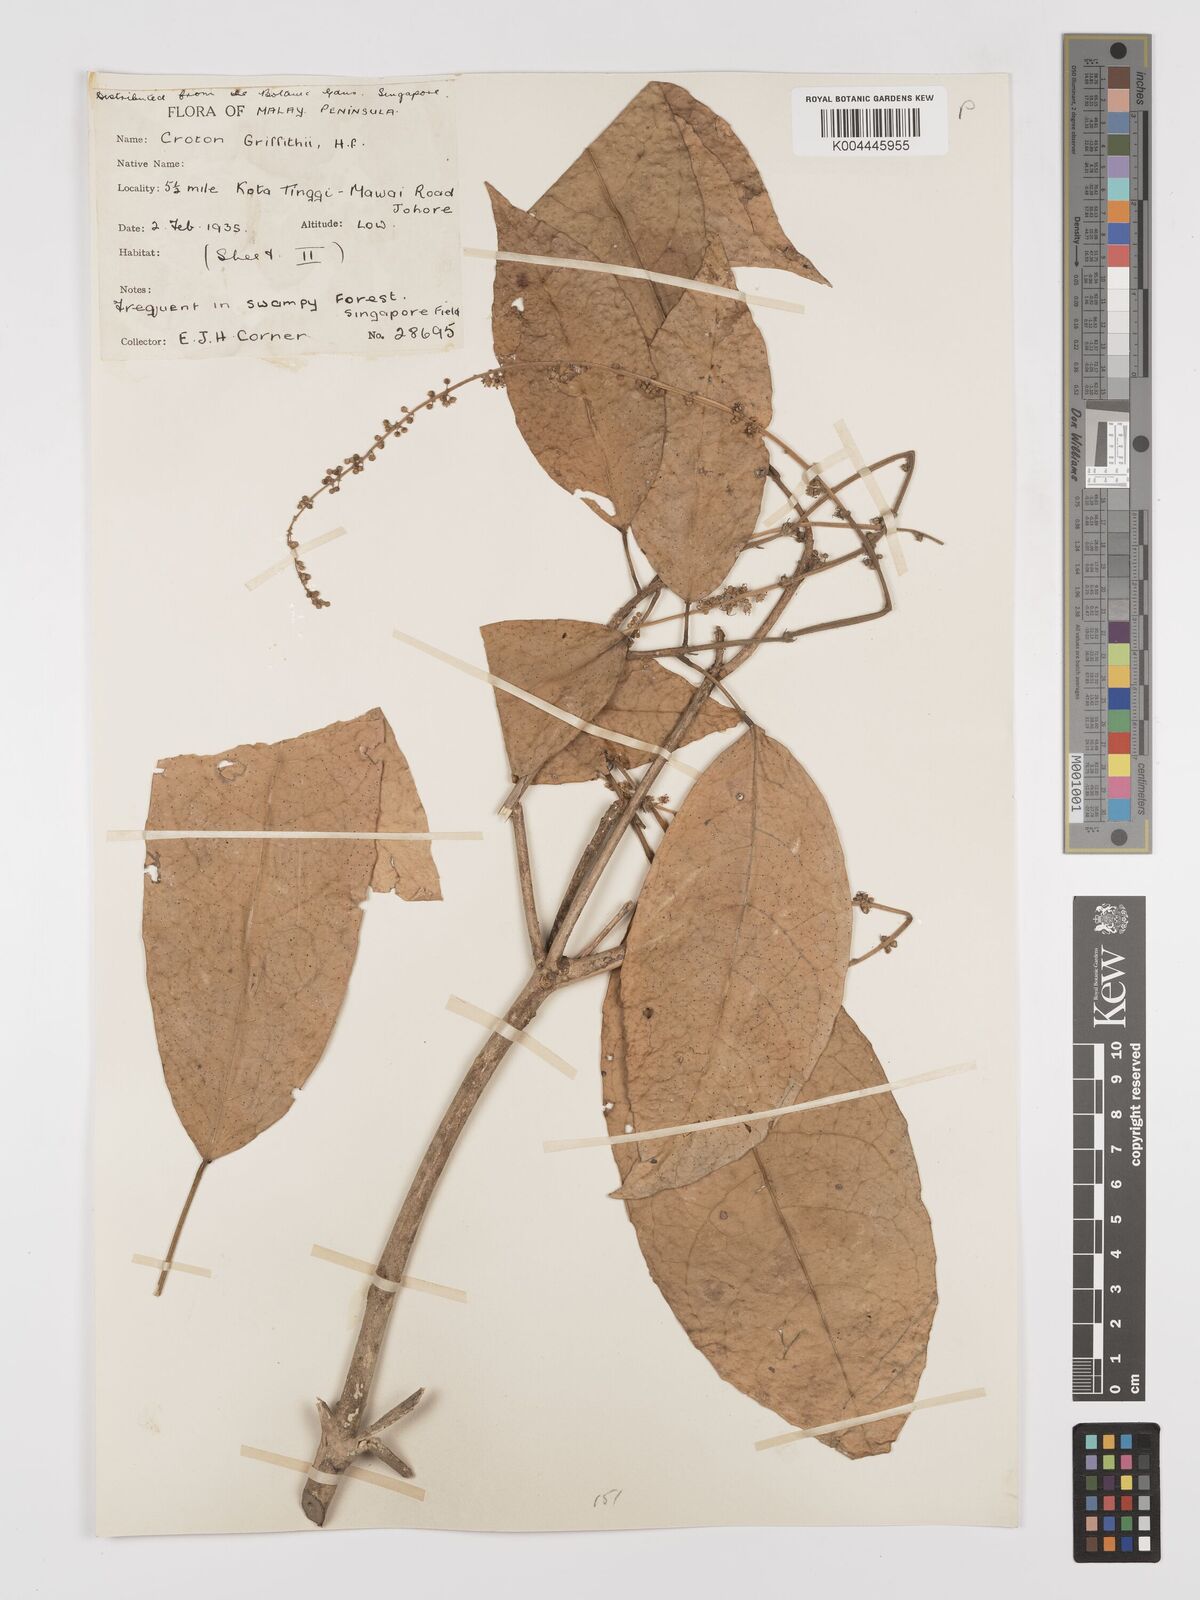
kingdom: Plantae
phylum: Tracheophyta
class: Magnoliopsida
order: Malpighiales
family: Euphorbiaceae
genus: Croton
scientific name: Croton griffithii
